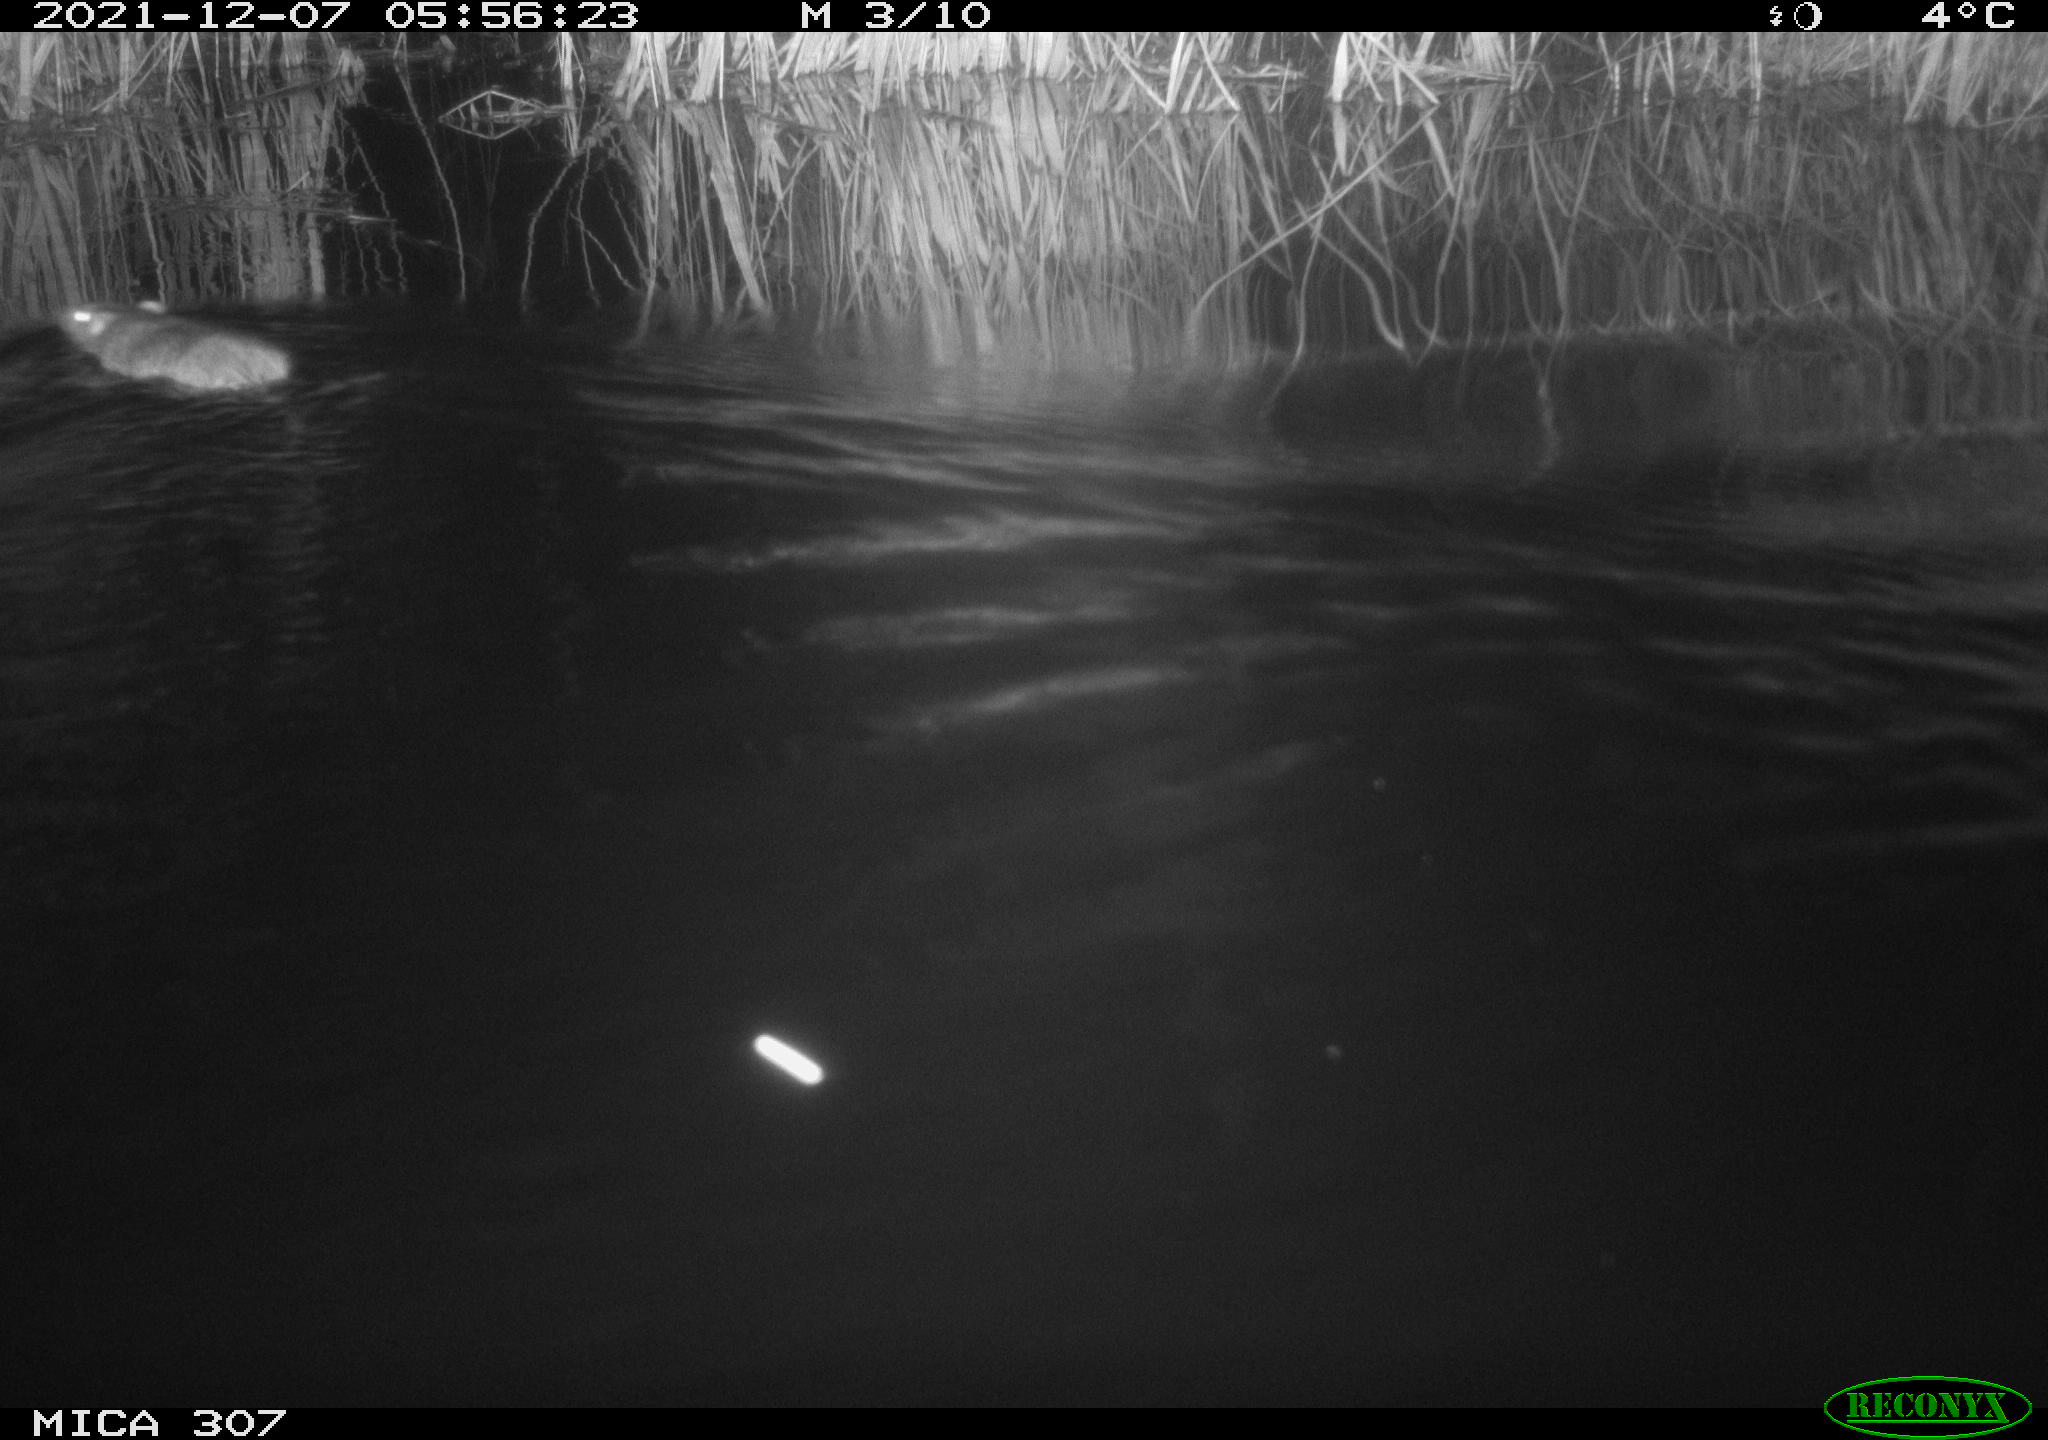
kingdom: Animalia
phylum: Chordata
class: Mammalia
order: Rodentia
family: Muridae
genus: Rattus
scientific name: Rattus norvegicus
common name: Brown rat
